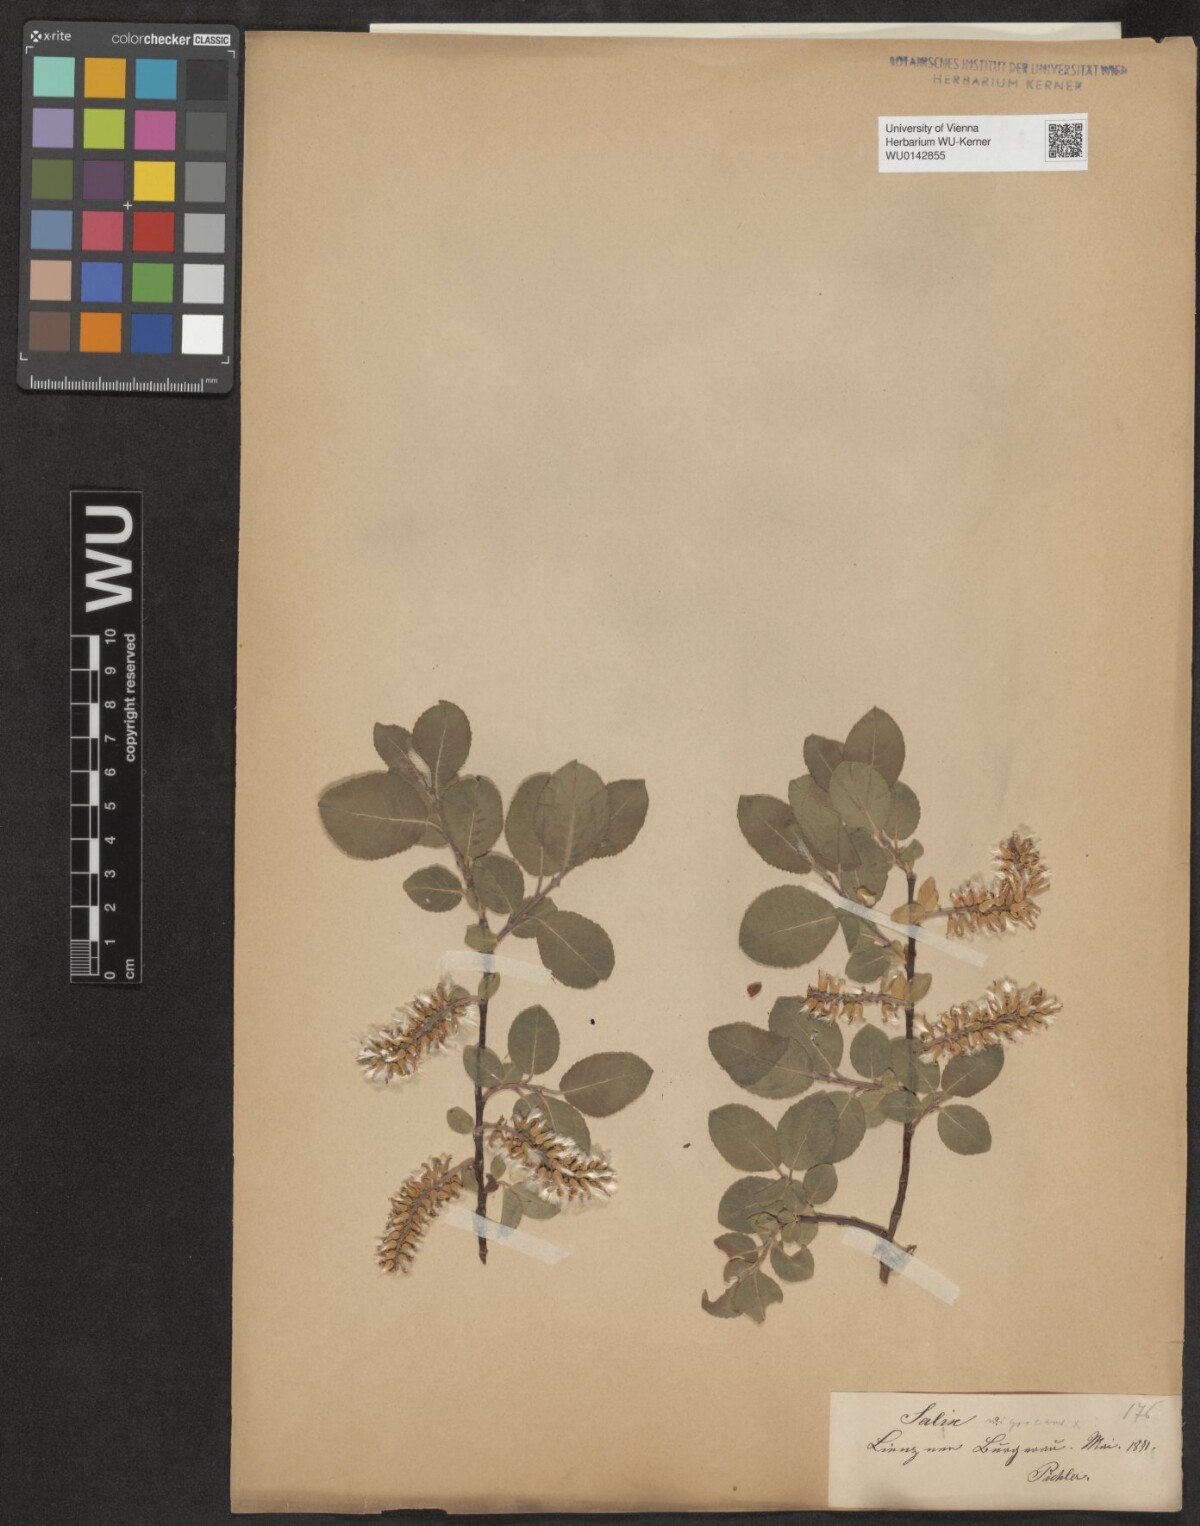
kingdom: Plantae
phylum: Tracheophyta
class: Magnoliopsida
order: Malpighiales
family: Salicaceae
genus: Salix
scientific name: Salix myrsinifolia
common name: Dark-leaved willow
